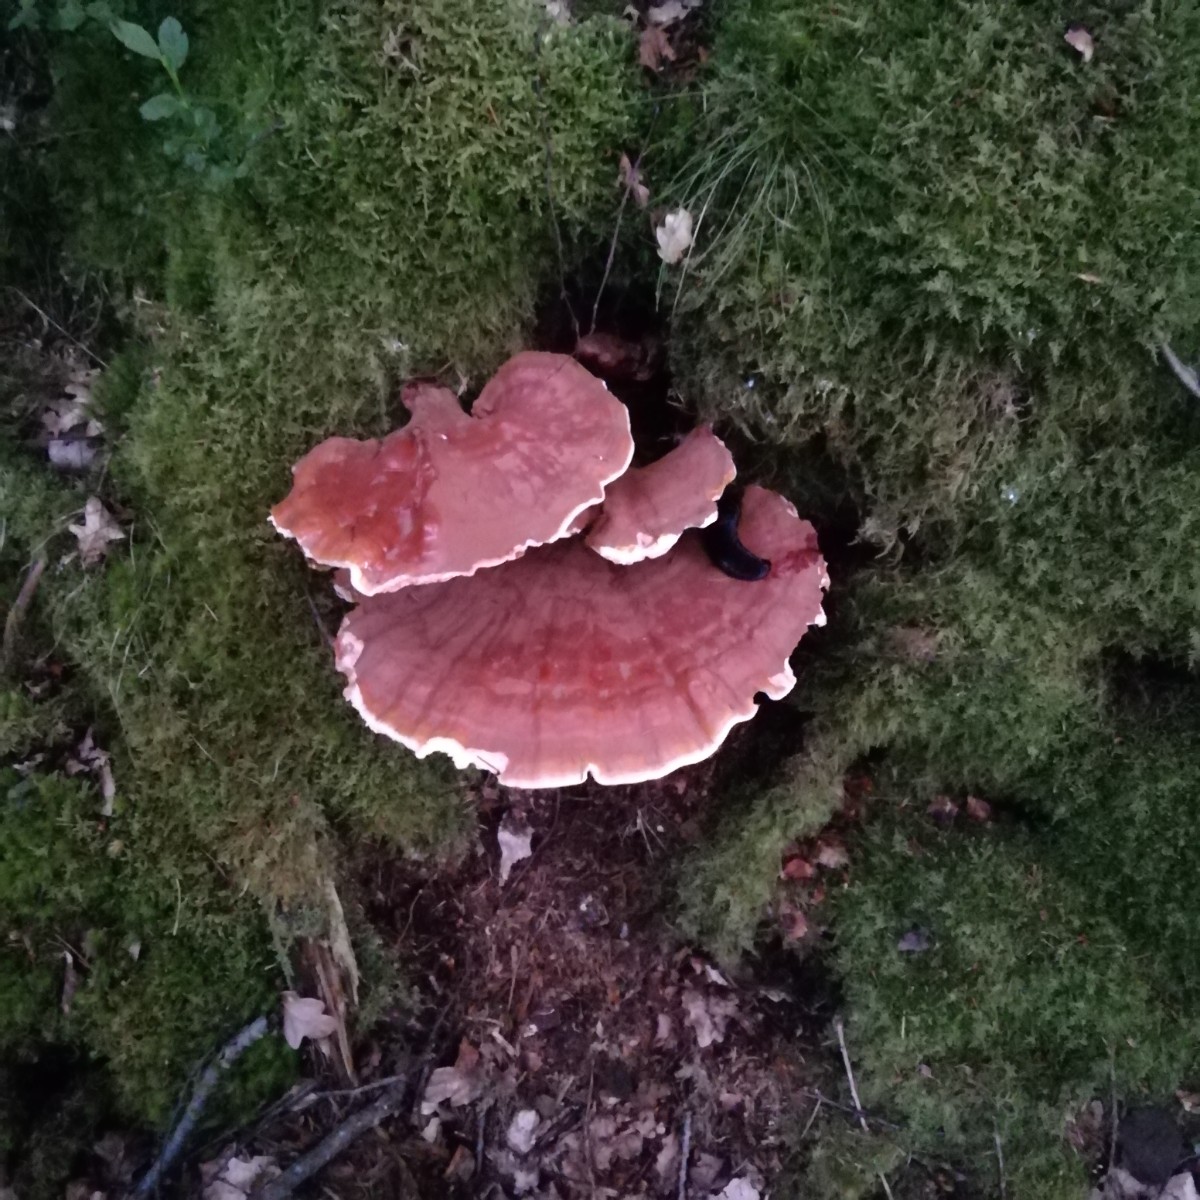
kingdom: Fungi
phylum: Basidiomycota
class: Agaricomycetes
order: Polyporales
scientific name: Polyporales
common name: poresvampordenen
